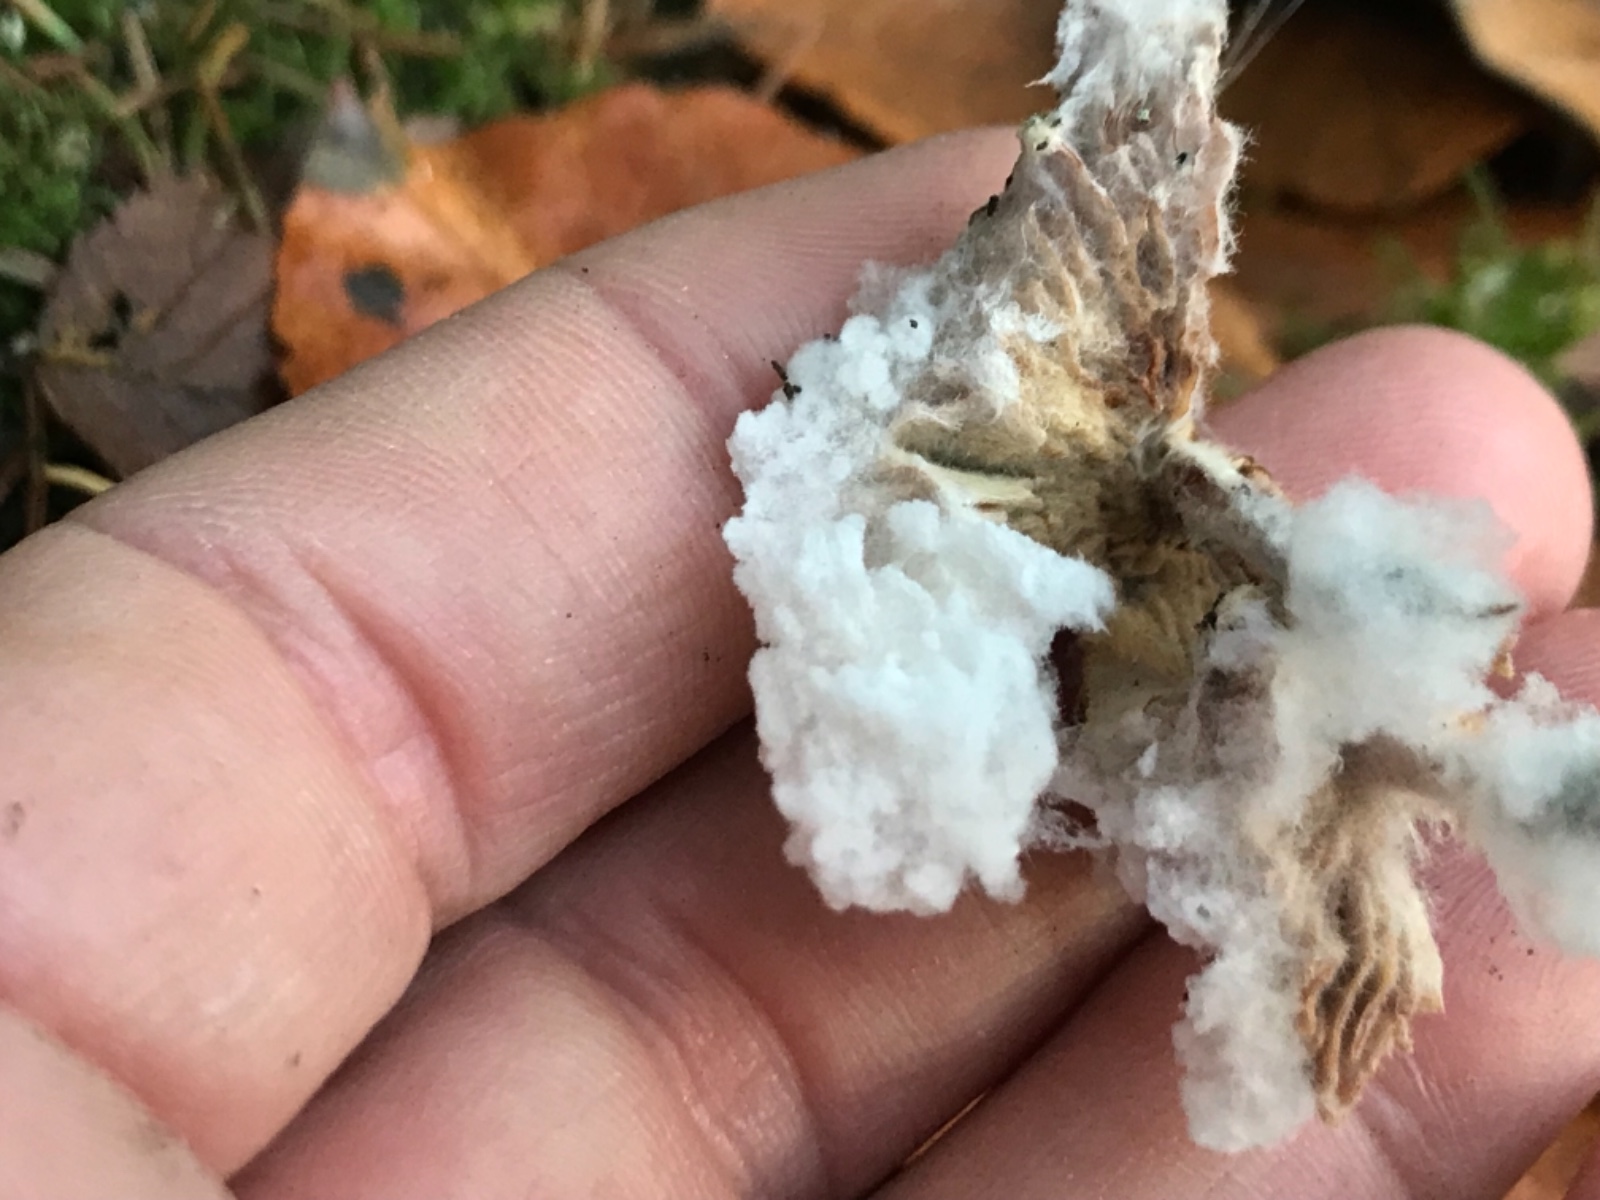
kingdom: Fungi
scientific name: Fungi
